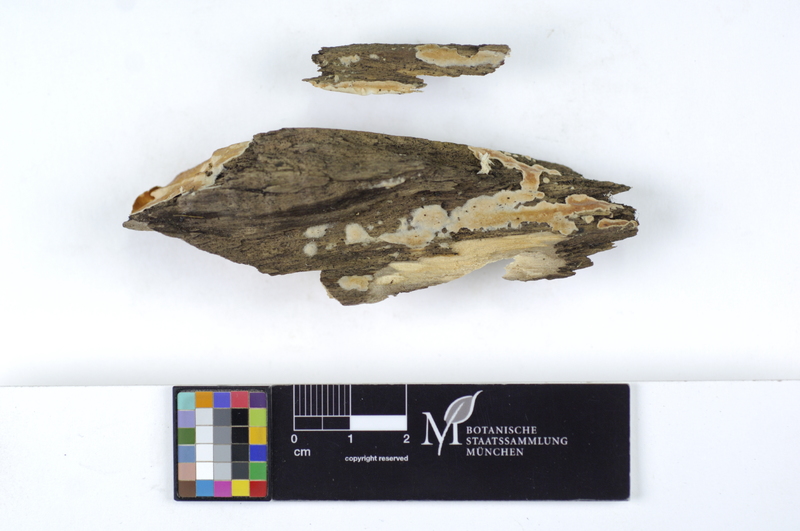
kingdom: Plantae
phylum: Tracheophyta
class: Magnoliopsida
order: Sapindales
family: Sapindaceae
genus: Aesculus
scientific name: Aesculus carnea
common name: Red horse-chestnut
